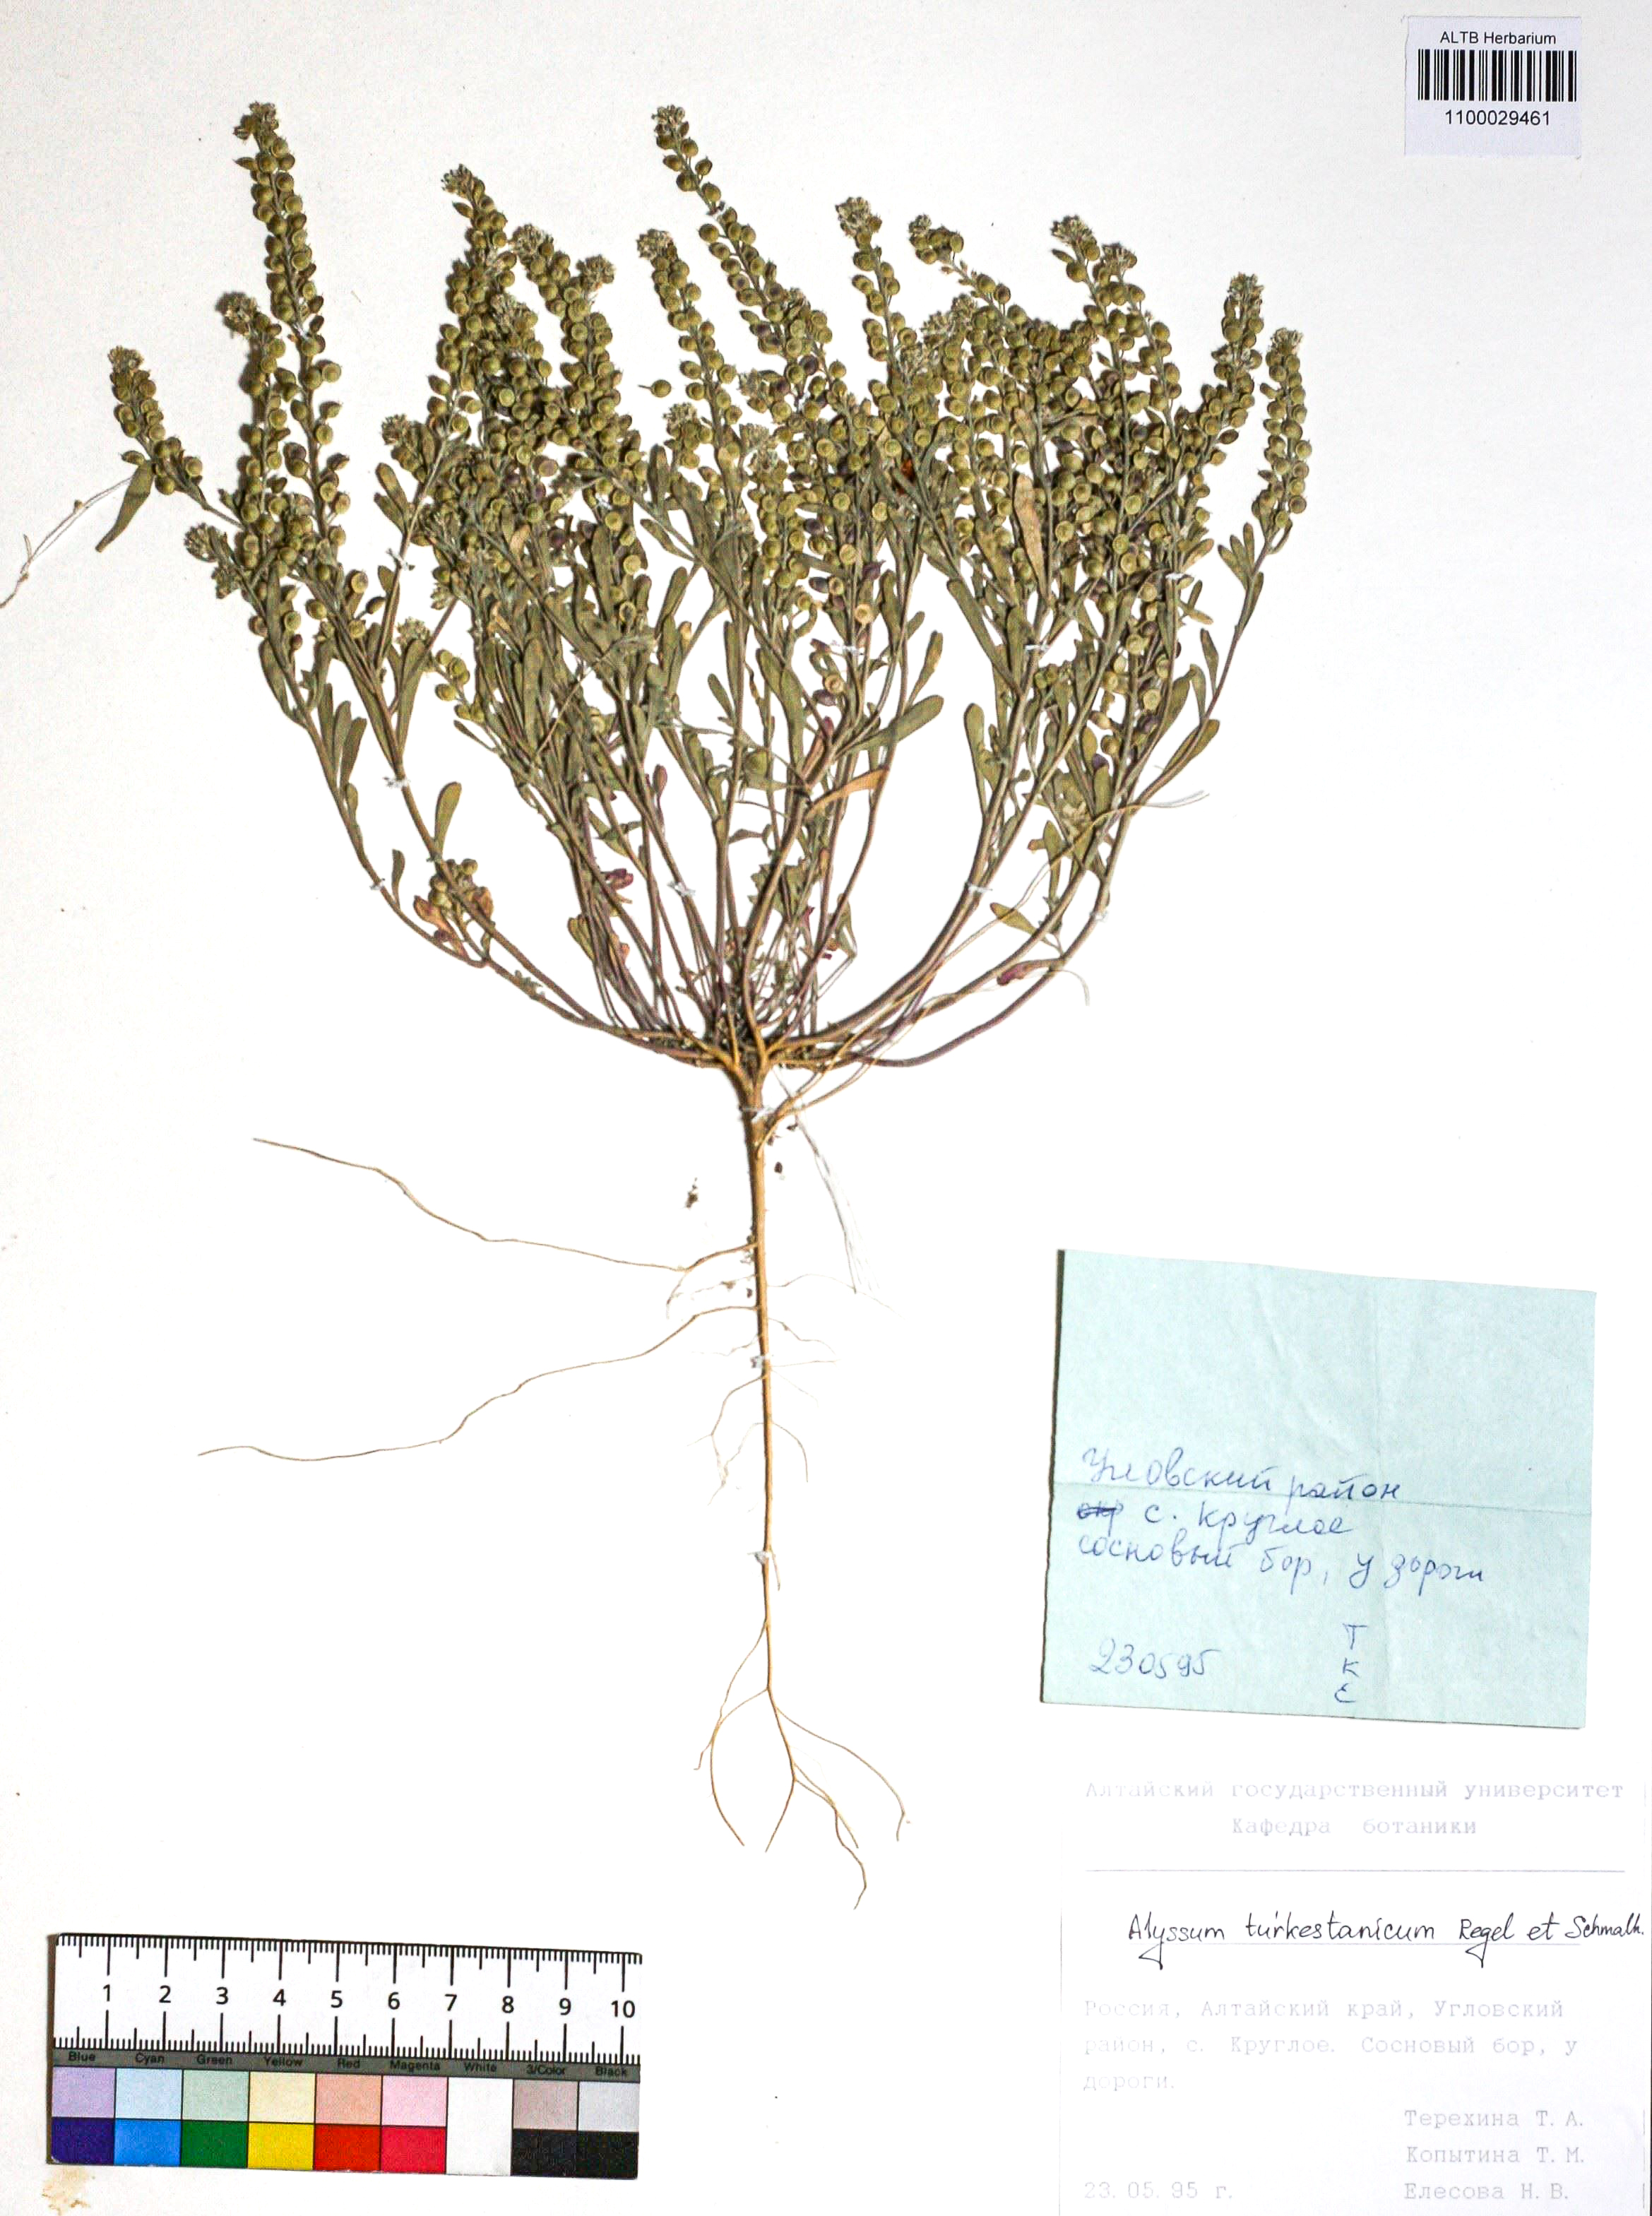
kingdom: Plantae
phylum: Tracheophyta
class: Magnoliopsida
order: Brassicales
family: Brassicaceae
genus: Alyssum
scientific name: Alyssum turkestanicum
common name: Desert alyssum
